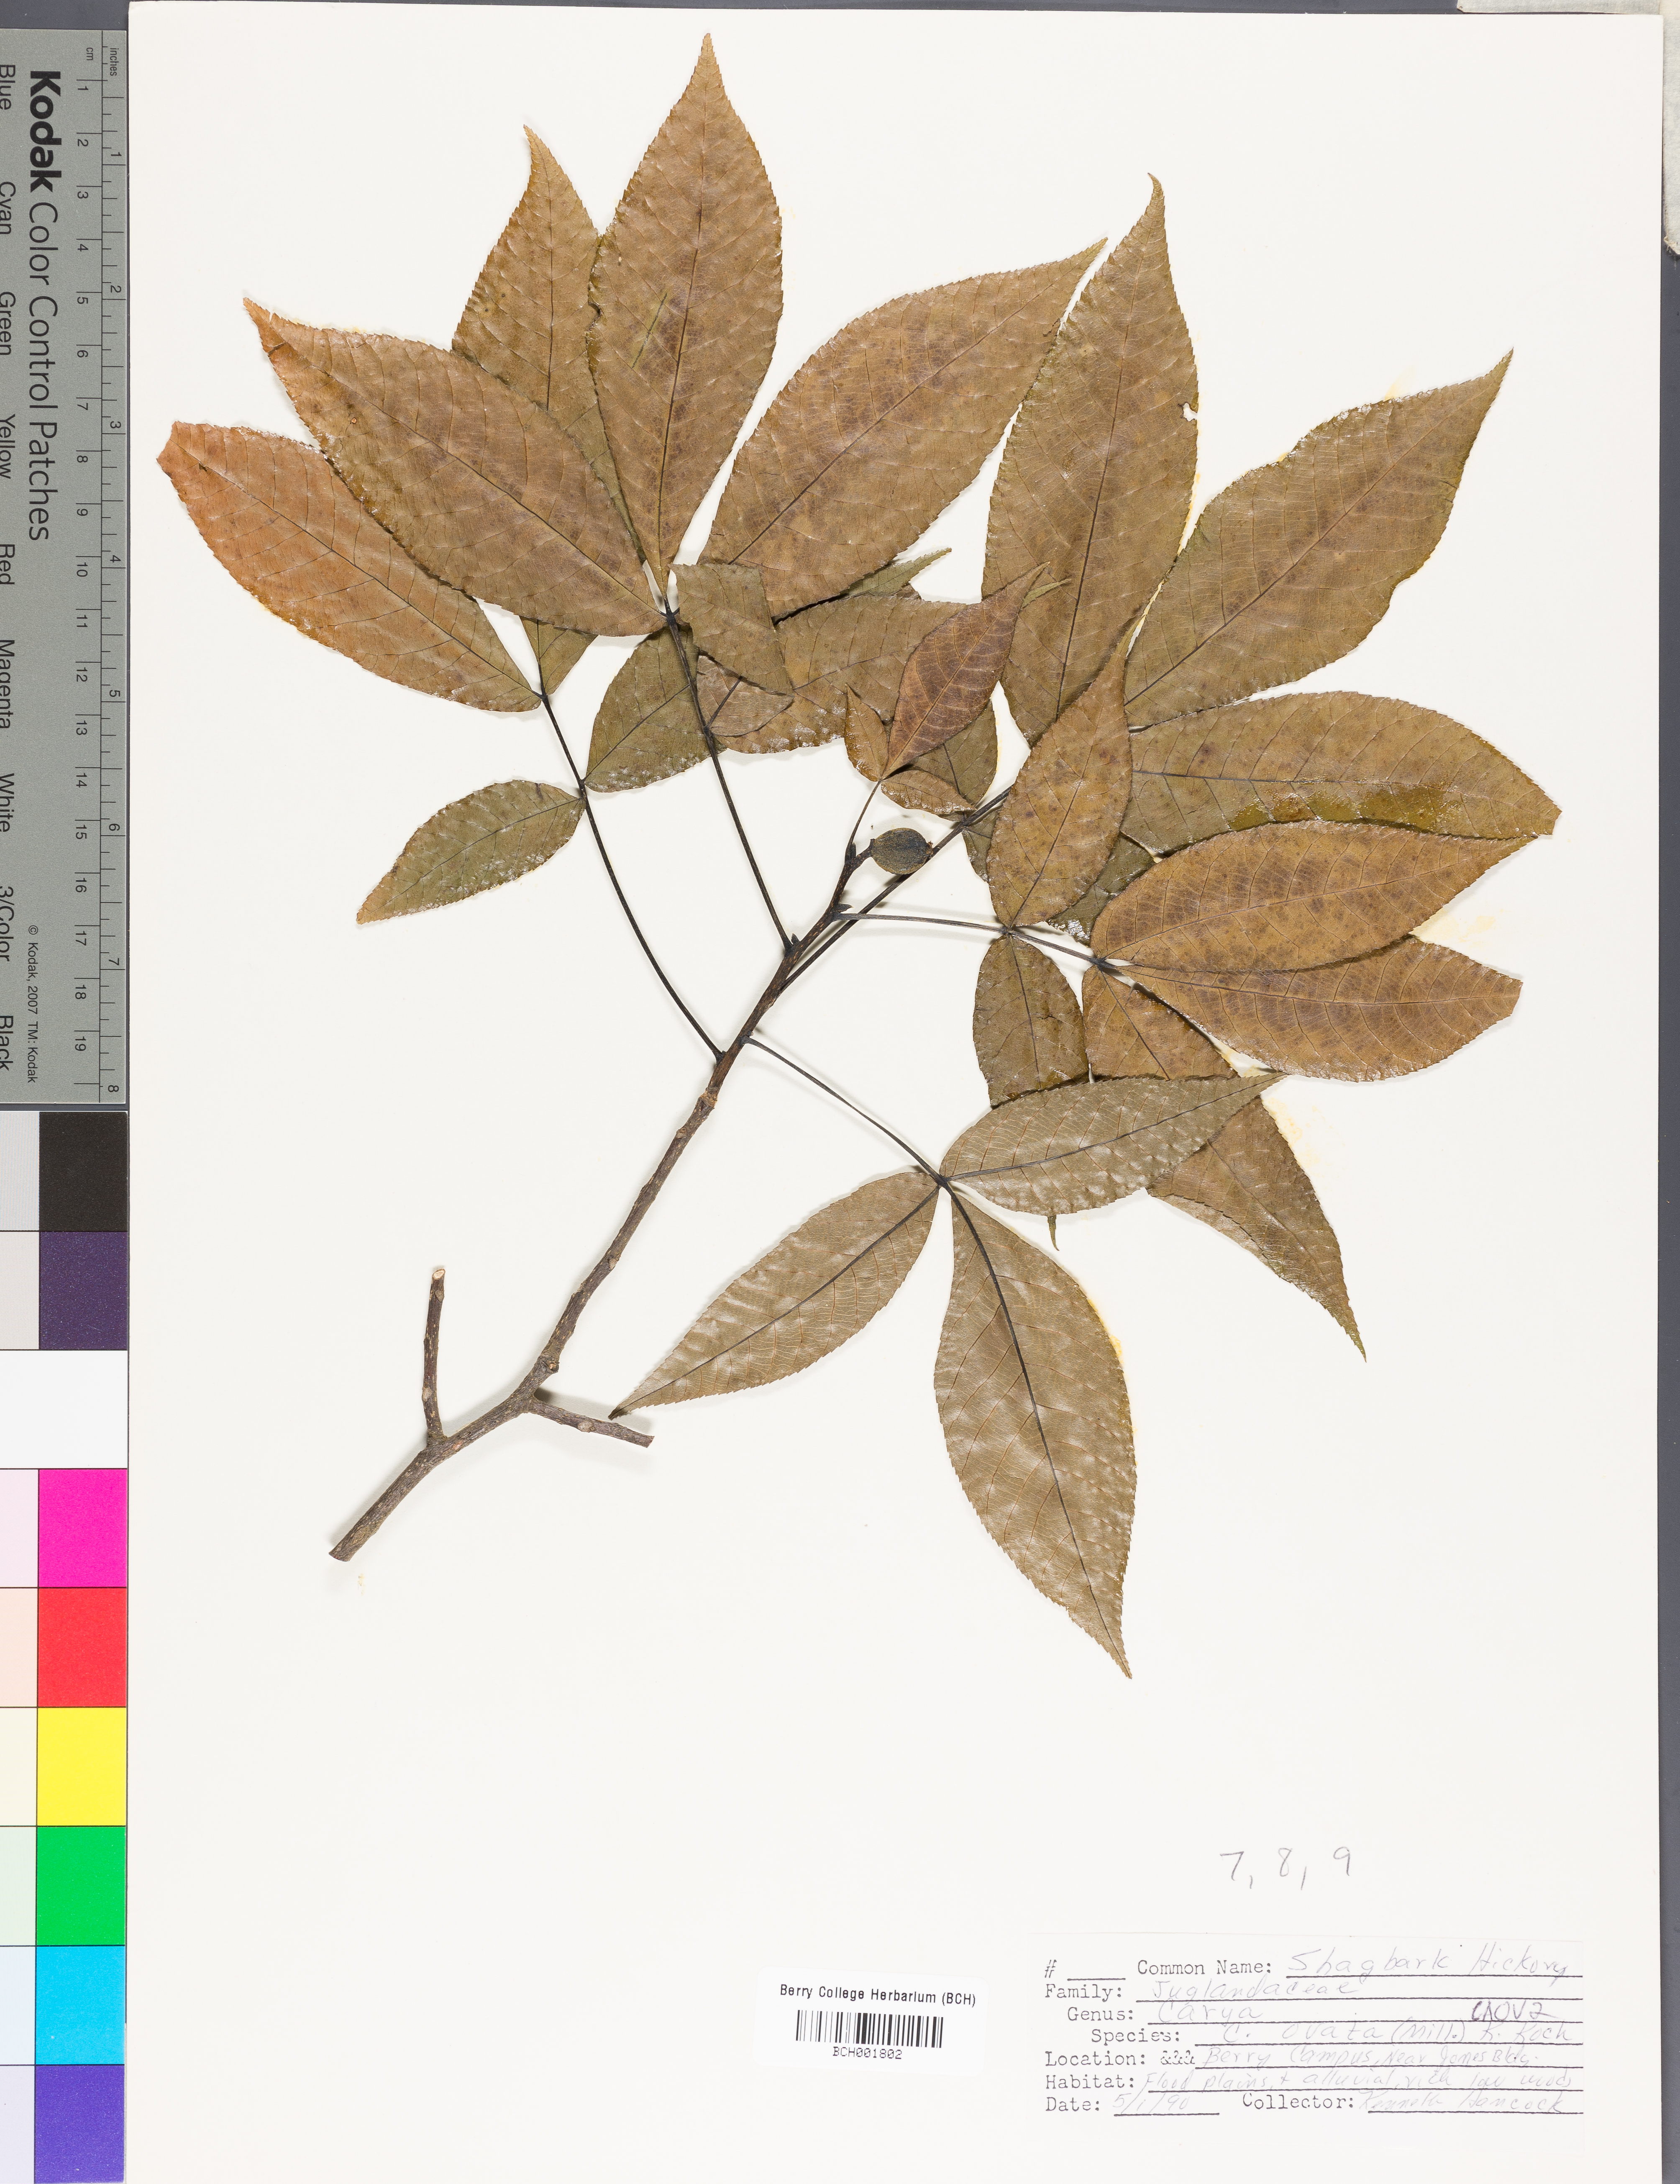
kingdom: Plantae
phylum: Tracheophyta
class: Magnoliopsida
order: Fagales
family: Juglandaceae
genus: Carya
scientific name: Carya ovata
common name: Shagbark hickory
